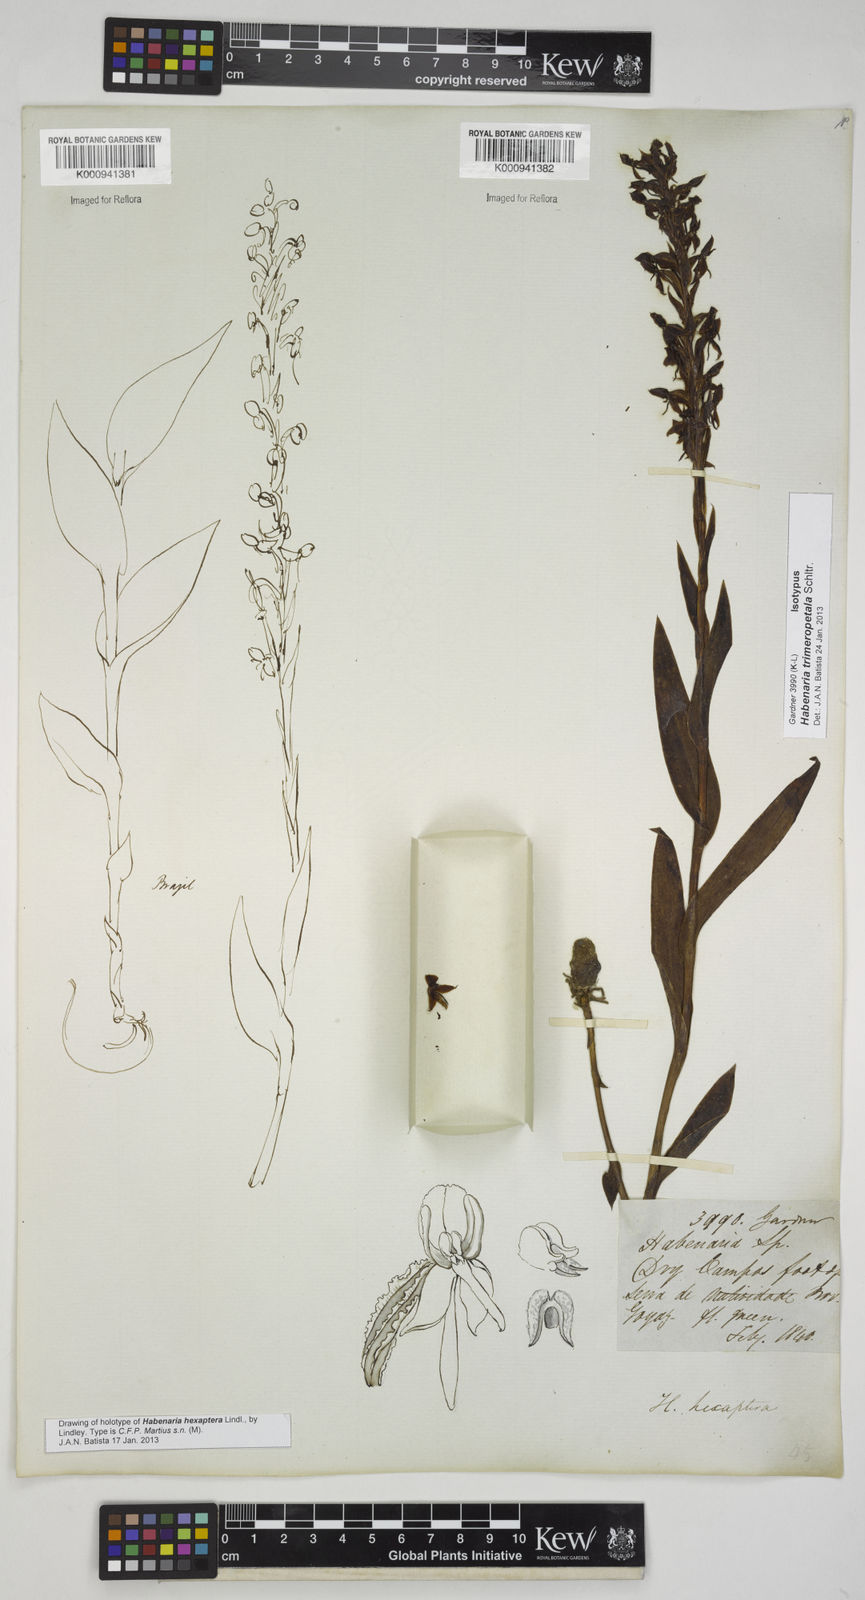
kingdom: Plantae
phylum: Tracheophyta
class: Liliopsida
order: Asparagales
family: Orchidaceae
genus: Habenaria
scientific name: Habenaria hexaptera
